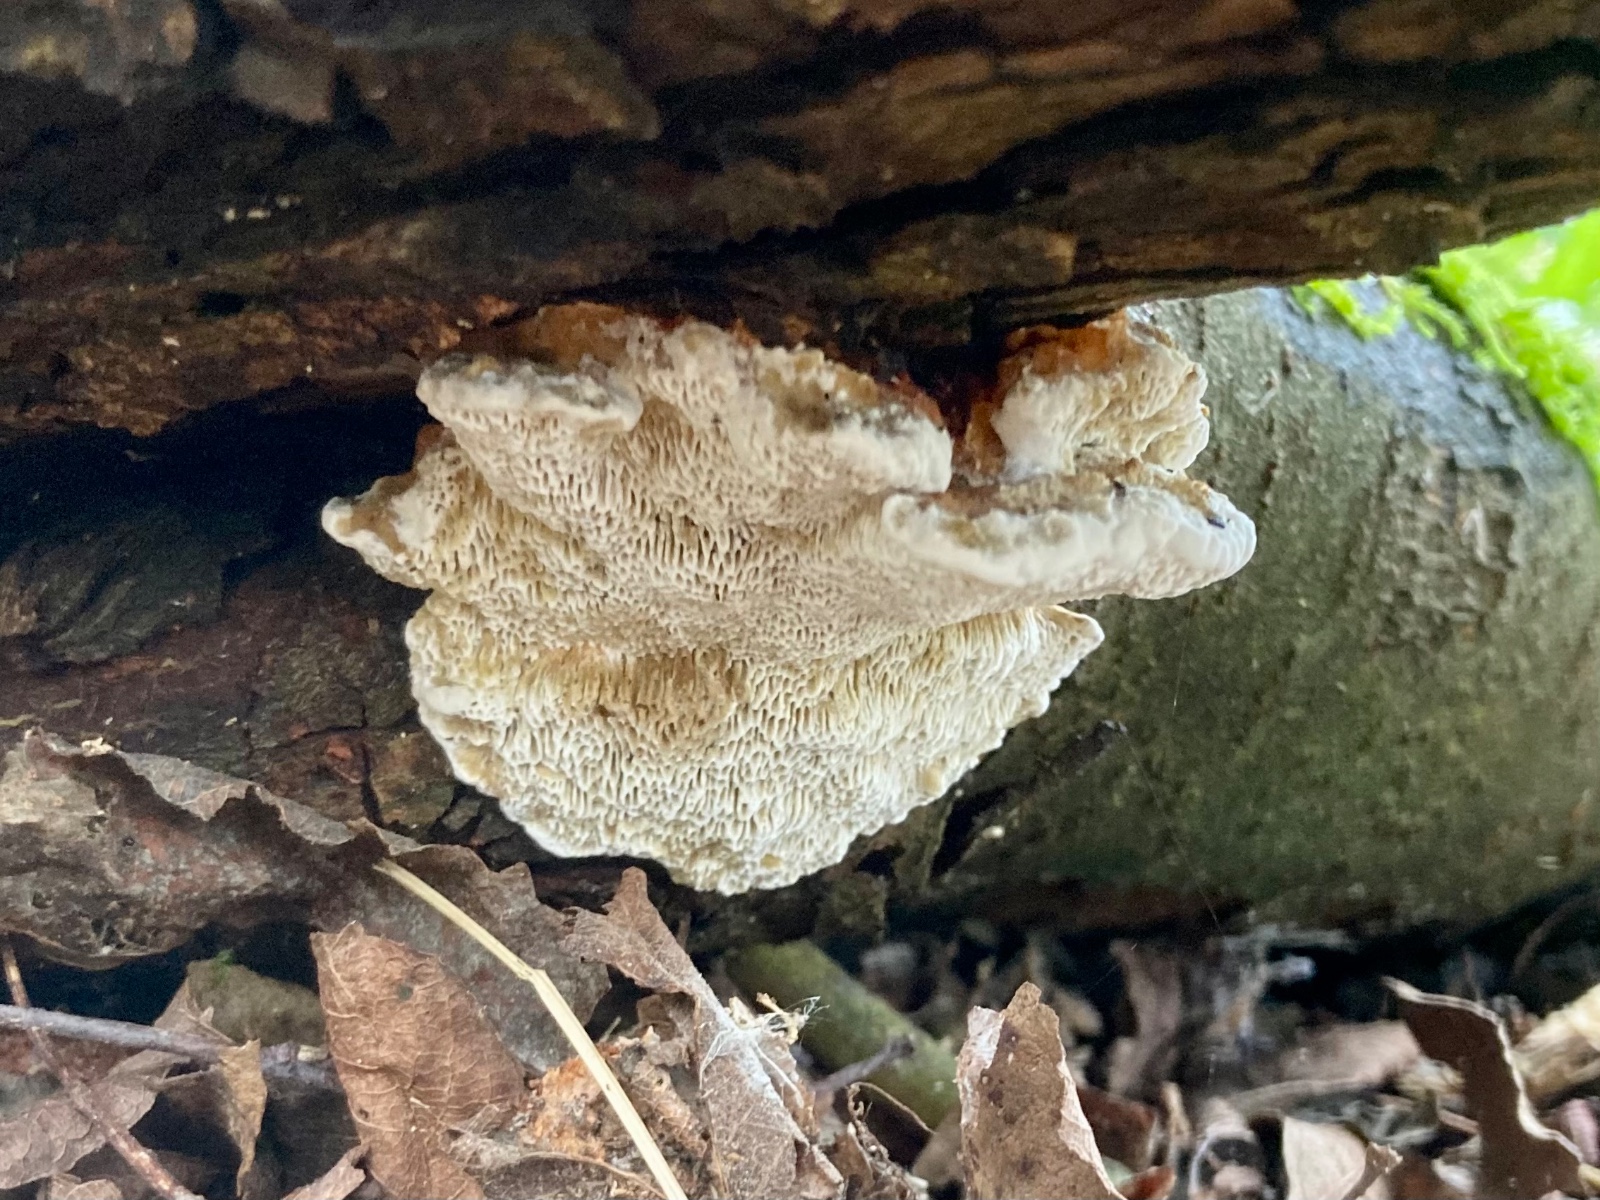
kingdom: Fungi
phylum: Basidiomycota
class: Agaricomycetes
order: Polyporales
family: Polyporaceae
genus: Daedaleopsis
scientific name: Daedaleopsis confragosa
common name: rødmende læderporesvamp
